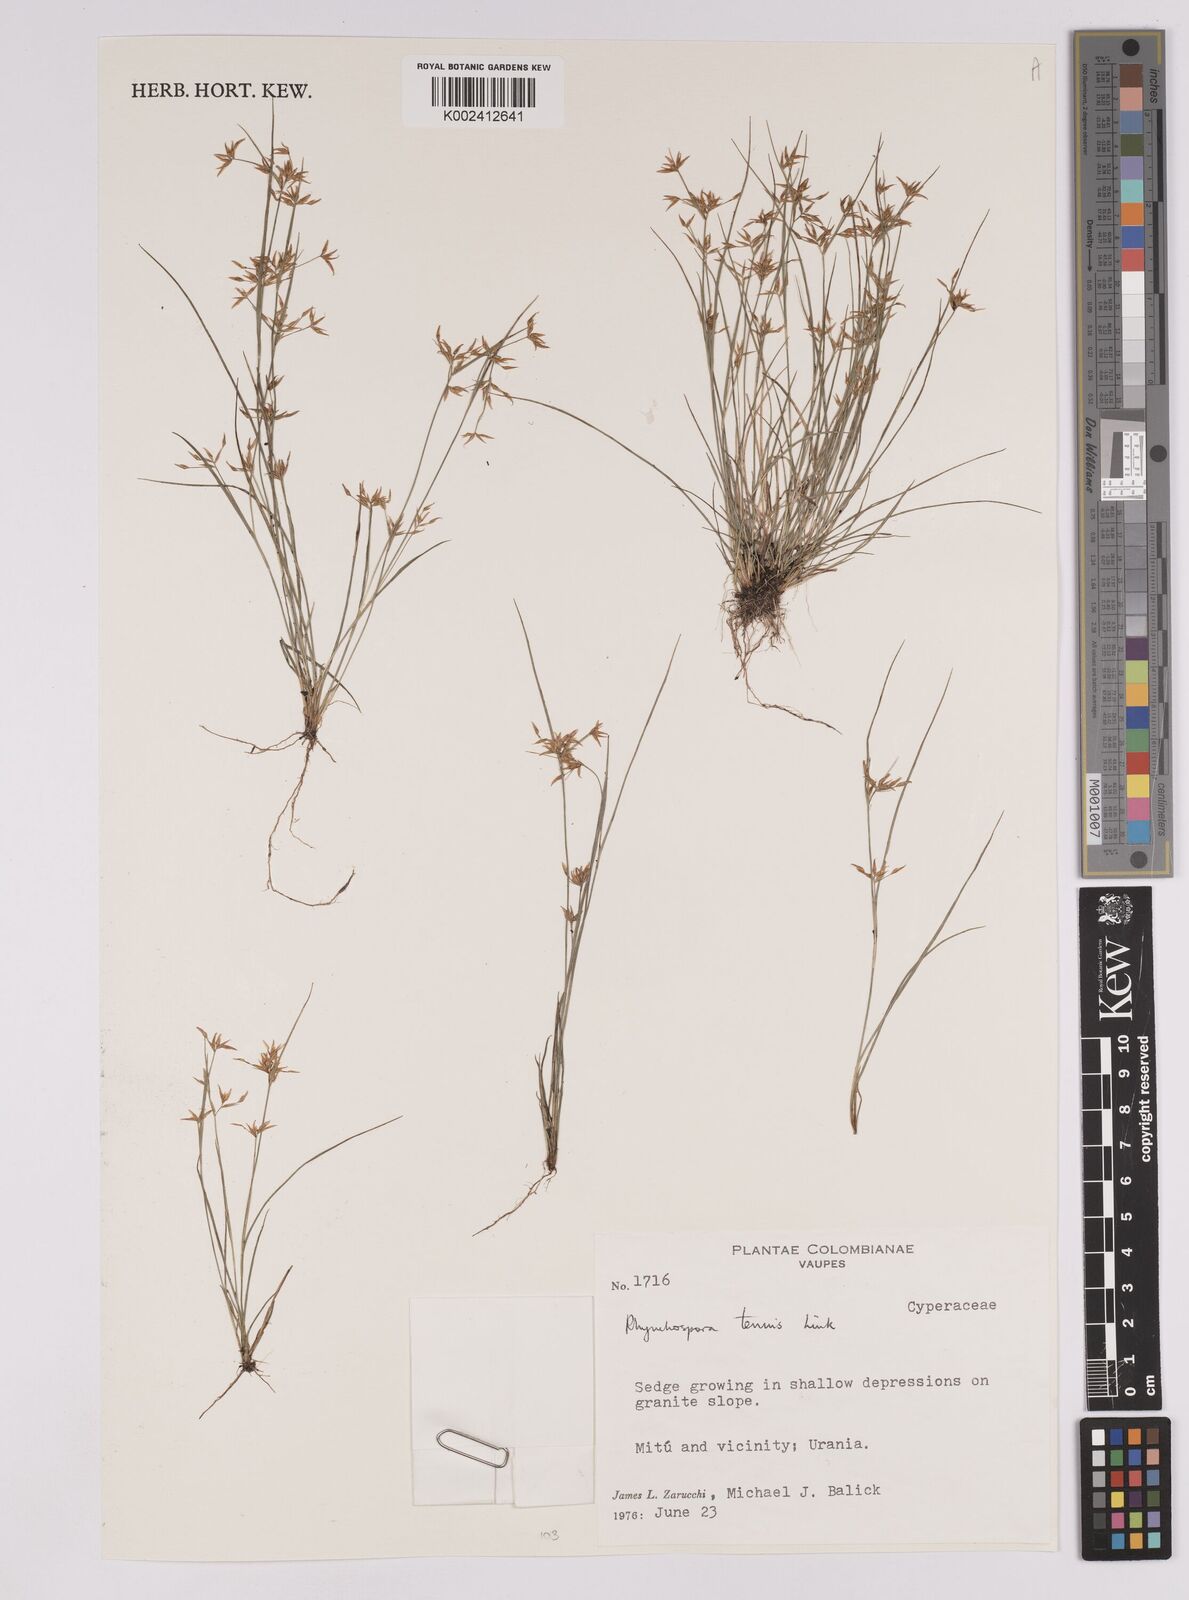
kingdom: Plantae
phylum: Tracheophyta
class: Liliopsida
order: Poales
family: Cyperaceae
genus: Rhynchospora
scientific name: Rhynchospora radicans
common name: Tropical whitetop
